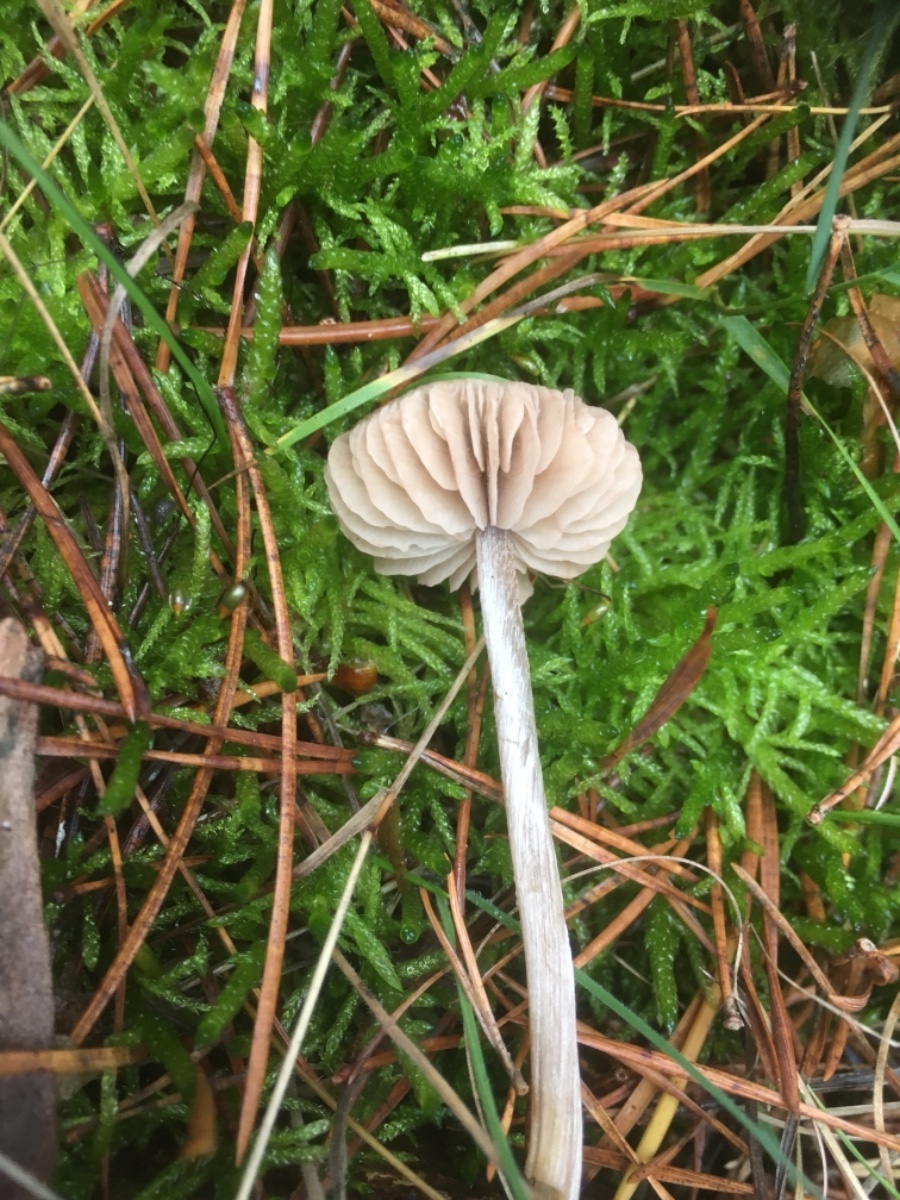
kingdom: Fungi
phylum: Basidiomycota
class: Agaricomycetes
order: Agaricales
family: Entolomataceae
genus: Entoloma
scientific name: Entoloma
